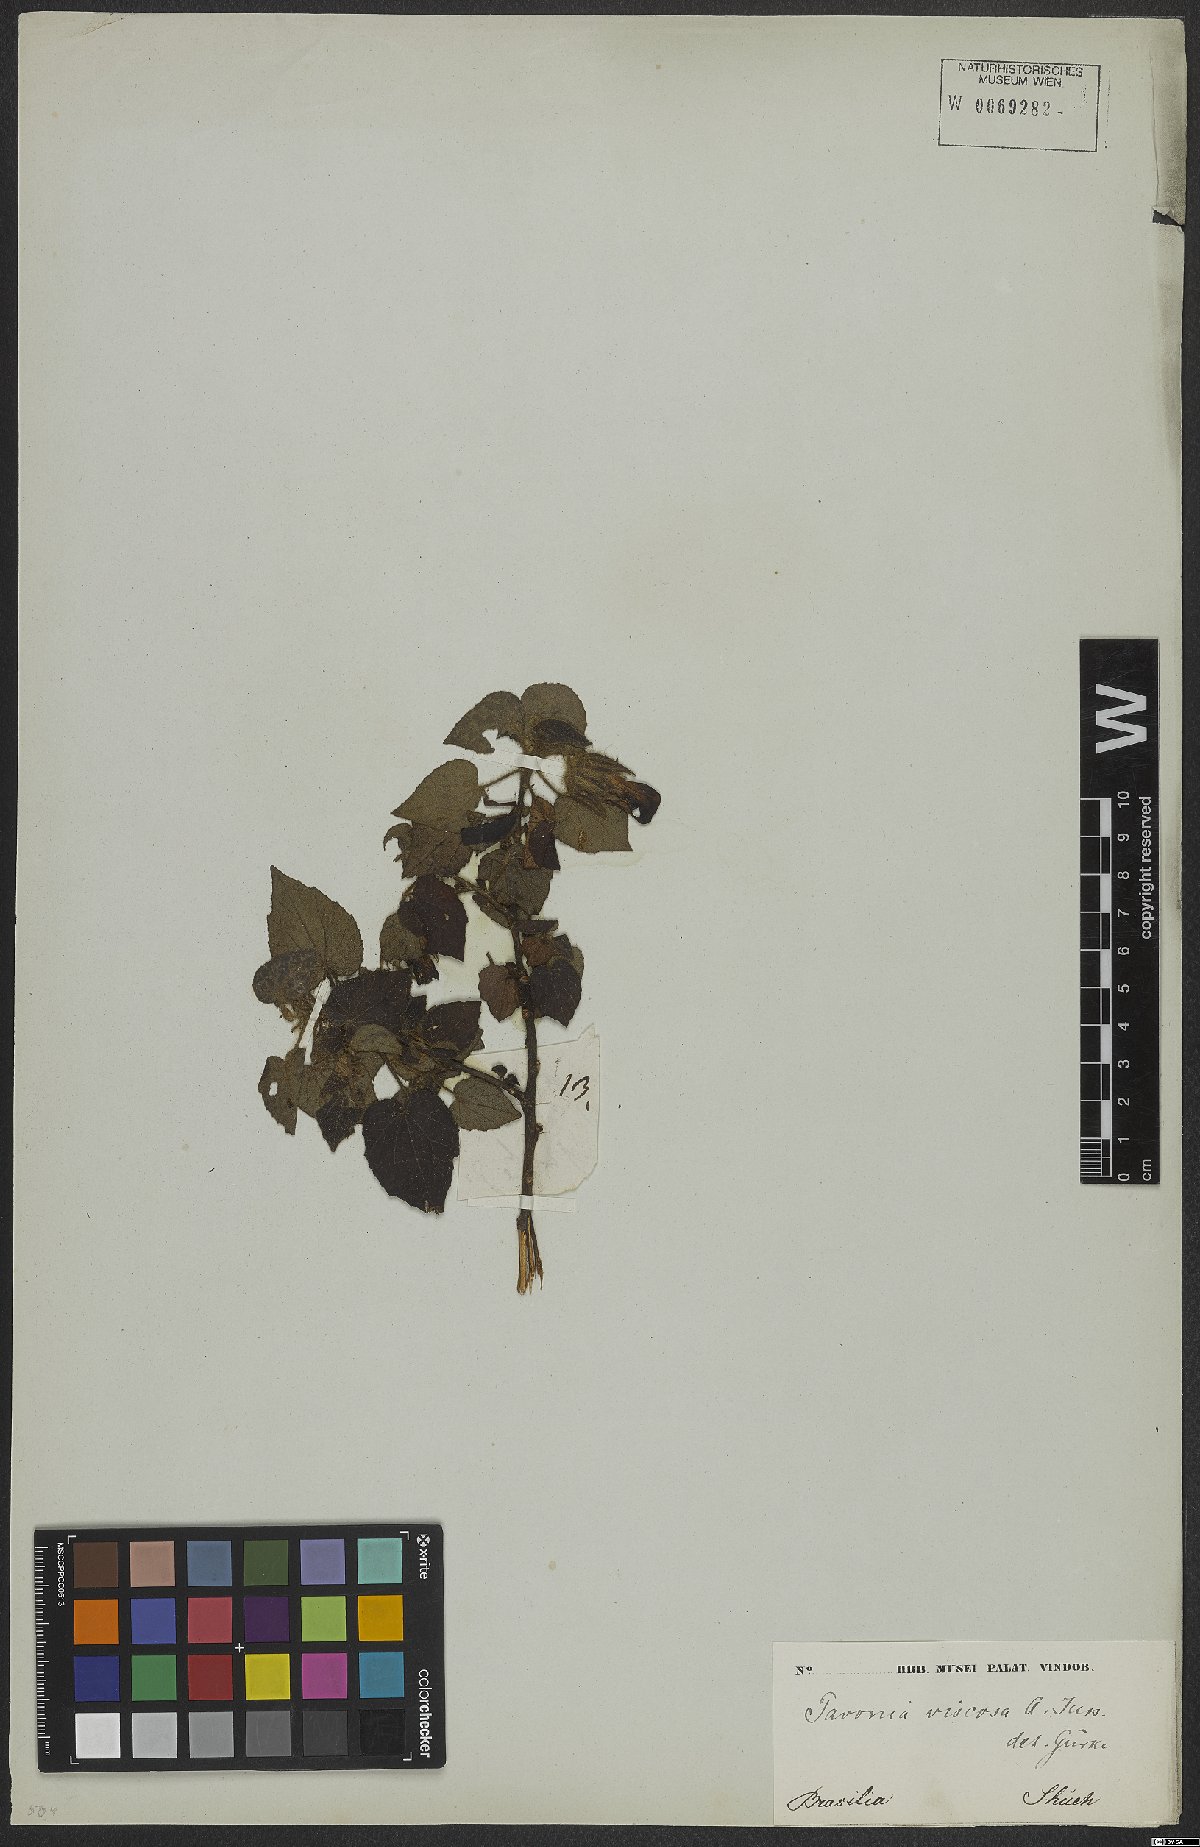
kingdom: Plantae
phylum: Tracheophyta
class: Magnoliopsida
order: Malvales
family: Malvaceae
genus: Pavonia
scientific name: Pavonia viscosa
